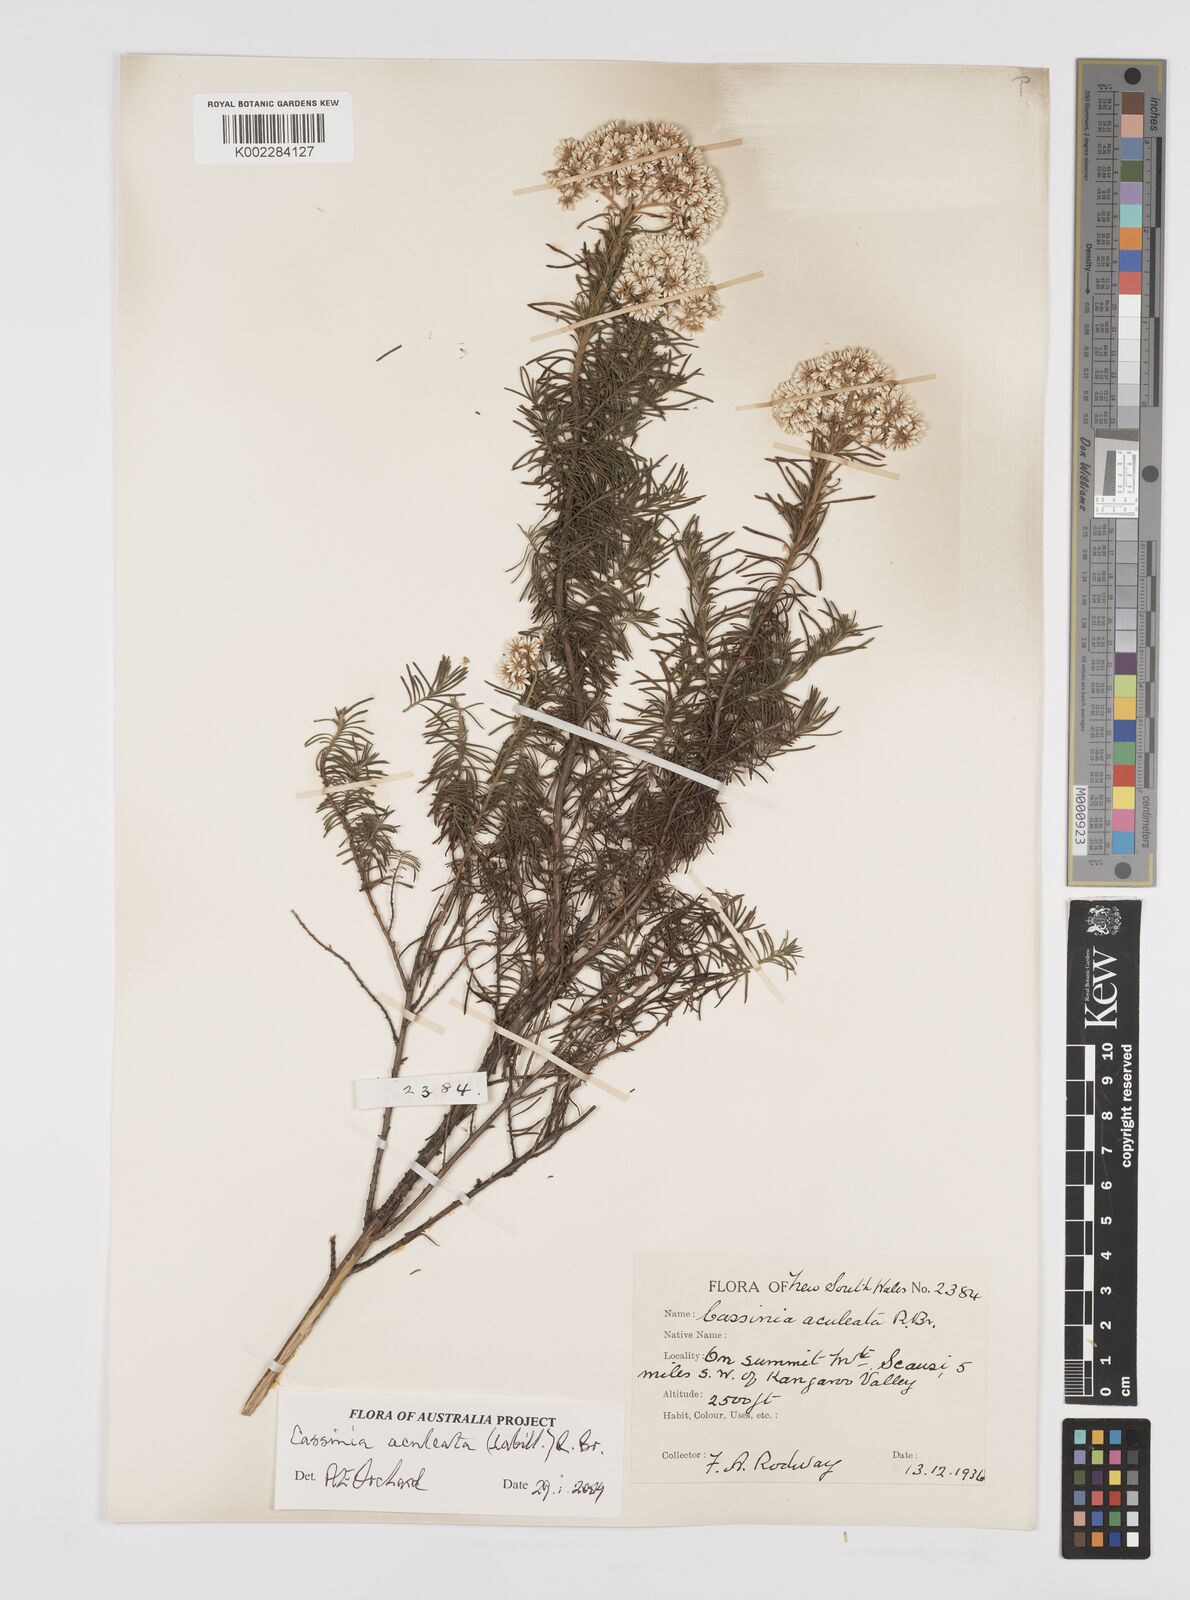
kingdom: Plantae
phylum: Tracheophyta
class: Magnoliopsida
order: Asterales
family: Asteraceae
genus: Cassinia
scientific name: Cassinia aculeata
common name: Australian tauhinu
